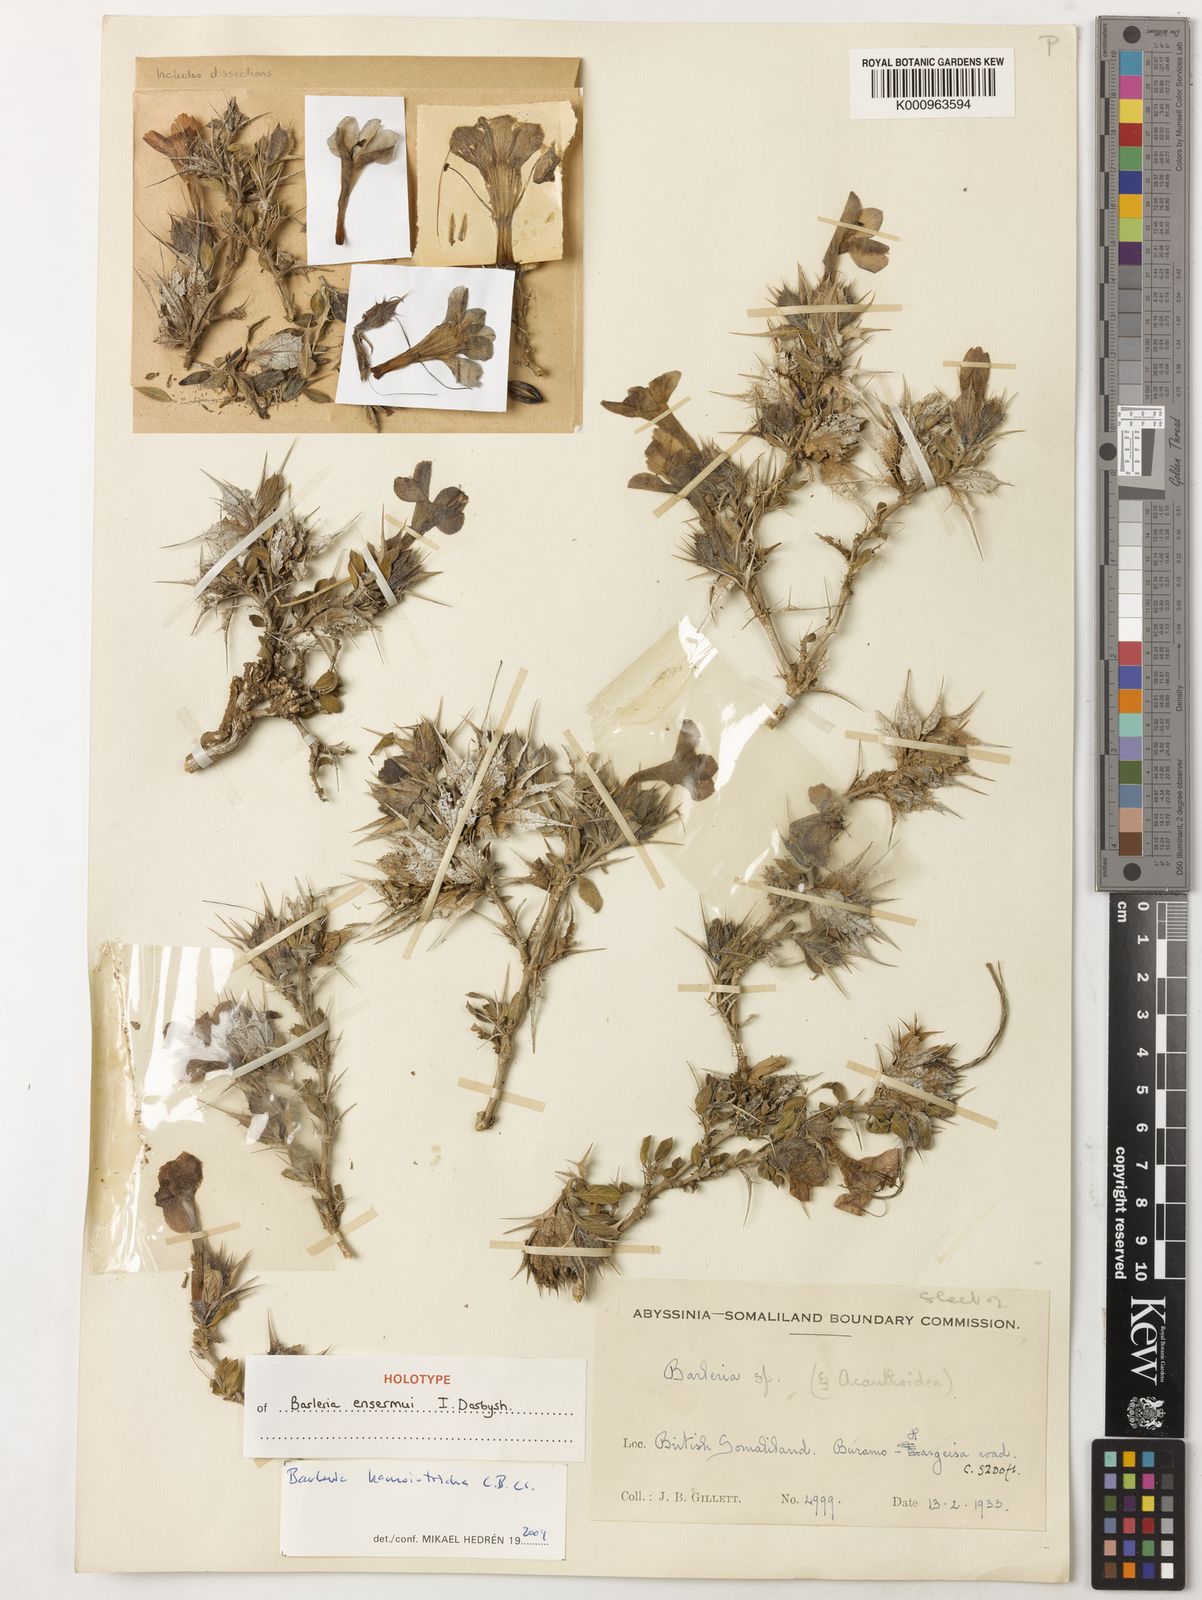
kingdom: Plantae
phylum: Tracheophyta
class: Magnoliopsida
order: Lamiales
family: Acanthaceae
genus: Barleria
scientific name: Barleria ensermui
